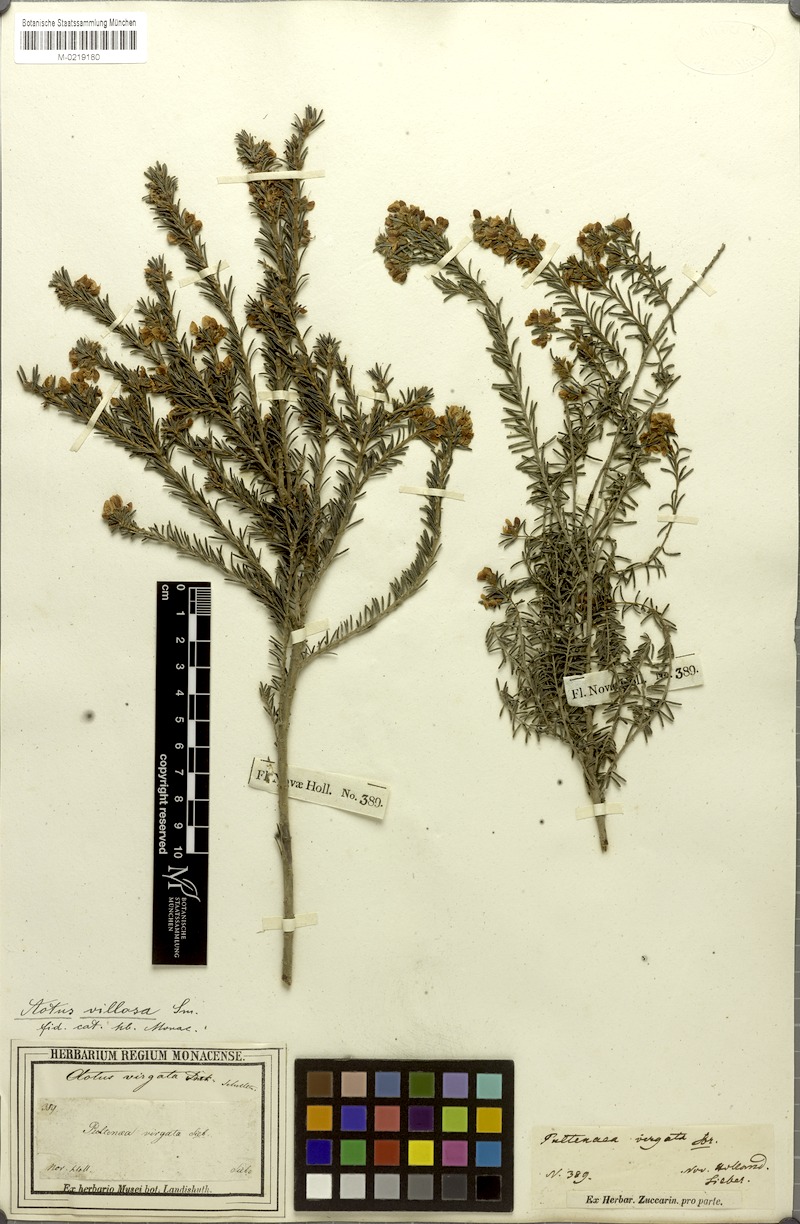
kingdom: Plantae
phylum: Tracheophyta
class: Magnoliopsida
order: Fabales
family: Fabaceae
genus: Aotus
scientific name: Aotus ericoides
